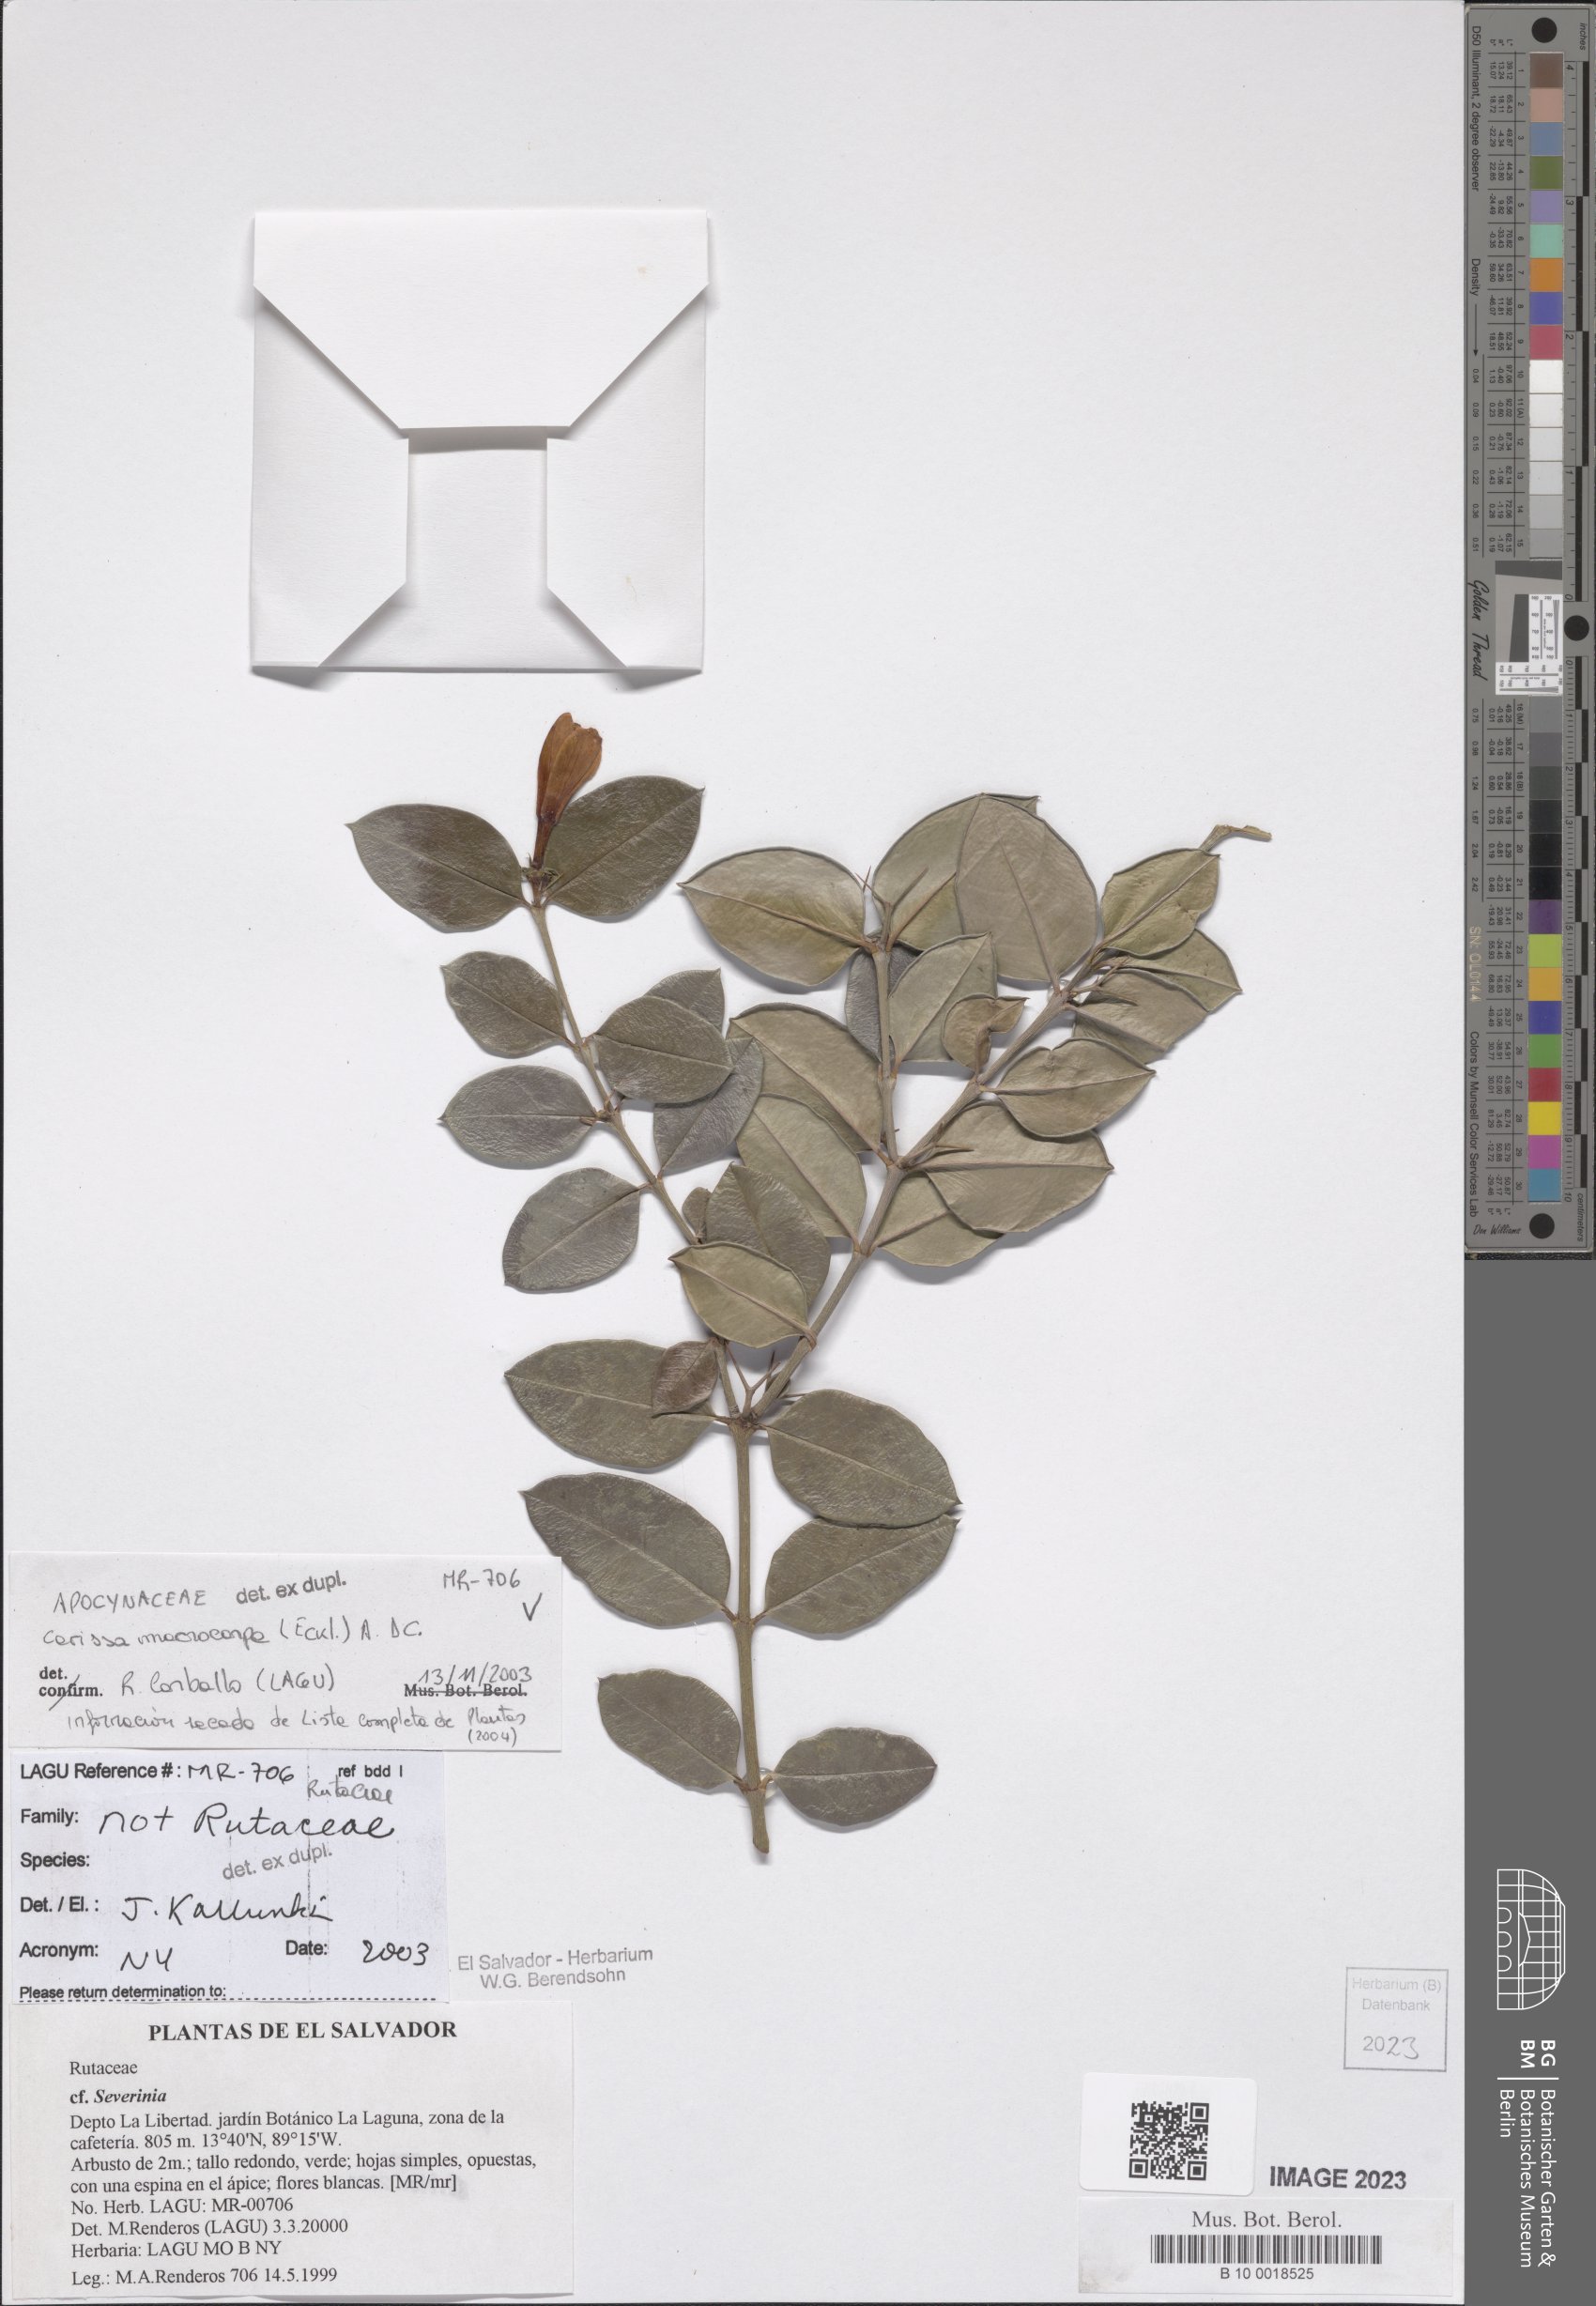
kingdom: Plantae
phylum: Tracheophyta
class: Magnoliopsida
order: Gentianales
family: Apocynaceae
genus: Carissa
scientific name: Carissa macrocarpa
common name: Natal plum
